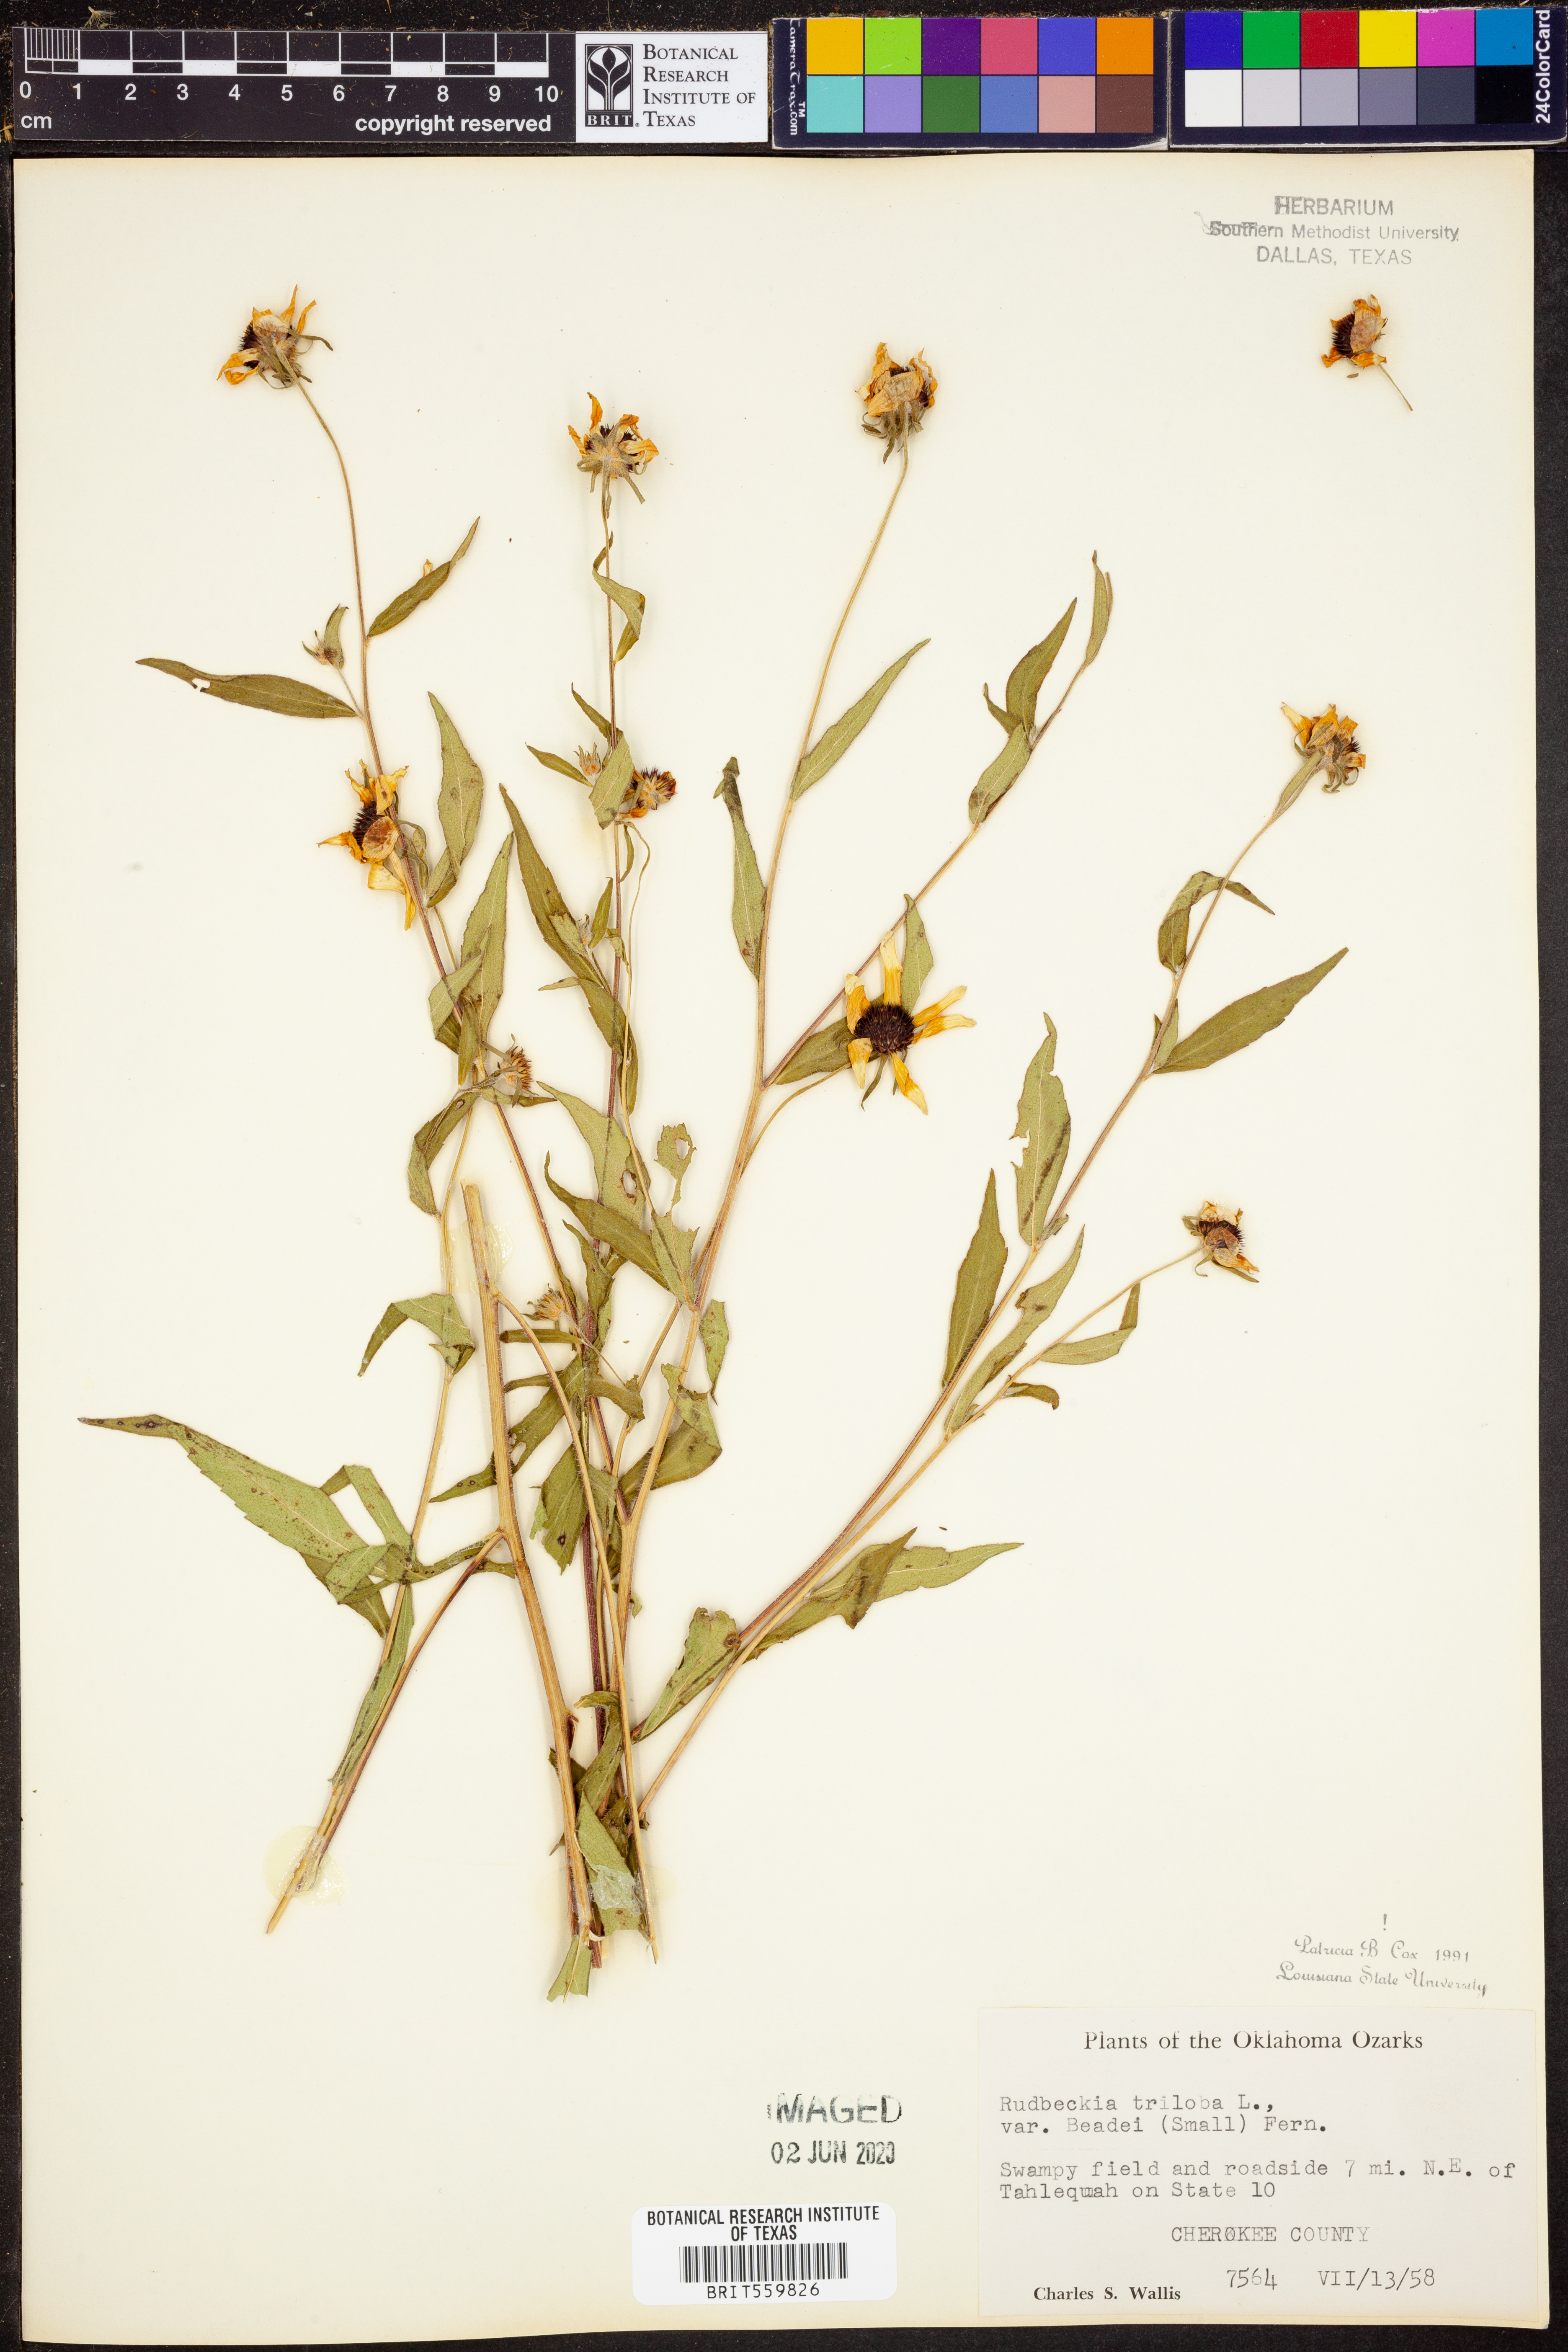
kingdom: Plantae
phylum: Tracheophyta
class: Magnoliopsida
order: Asterales
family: Asteraceae
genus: Rudbeckia
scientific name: Rudbeckia triloba
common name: Thin-leaved coneflower
